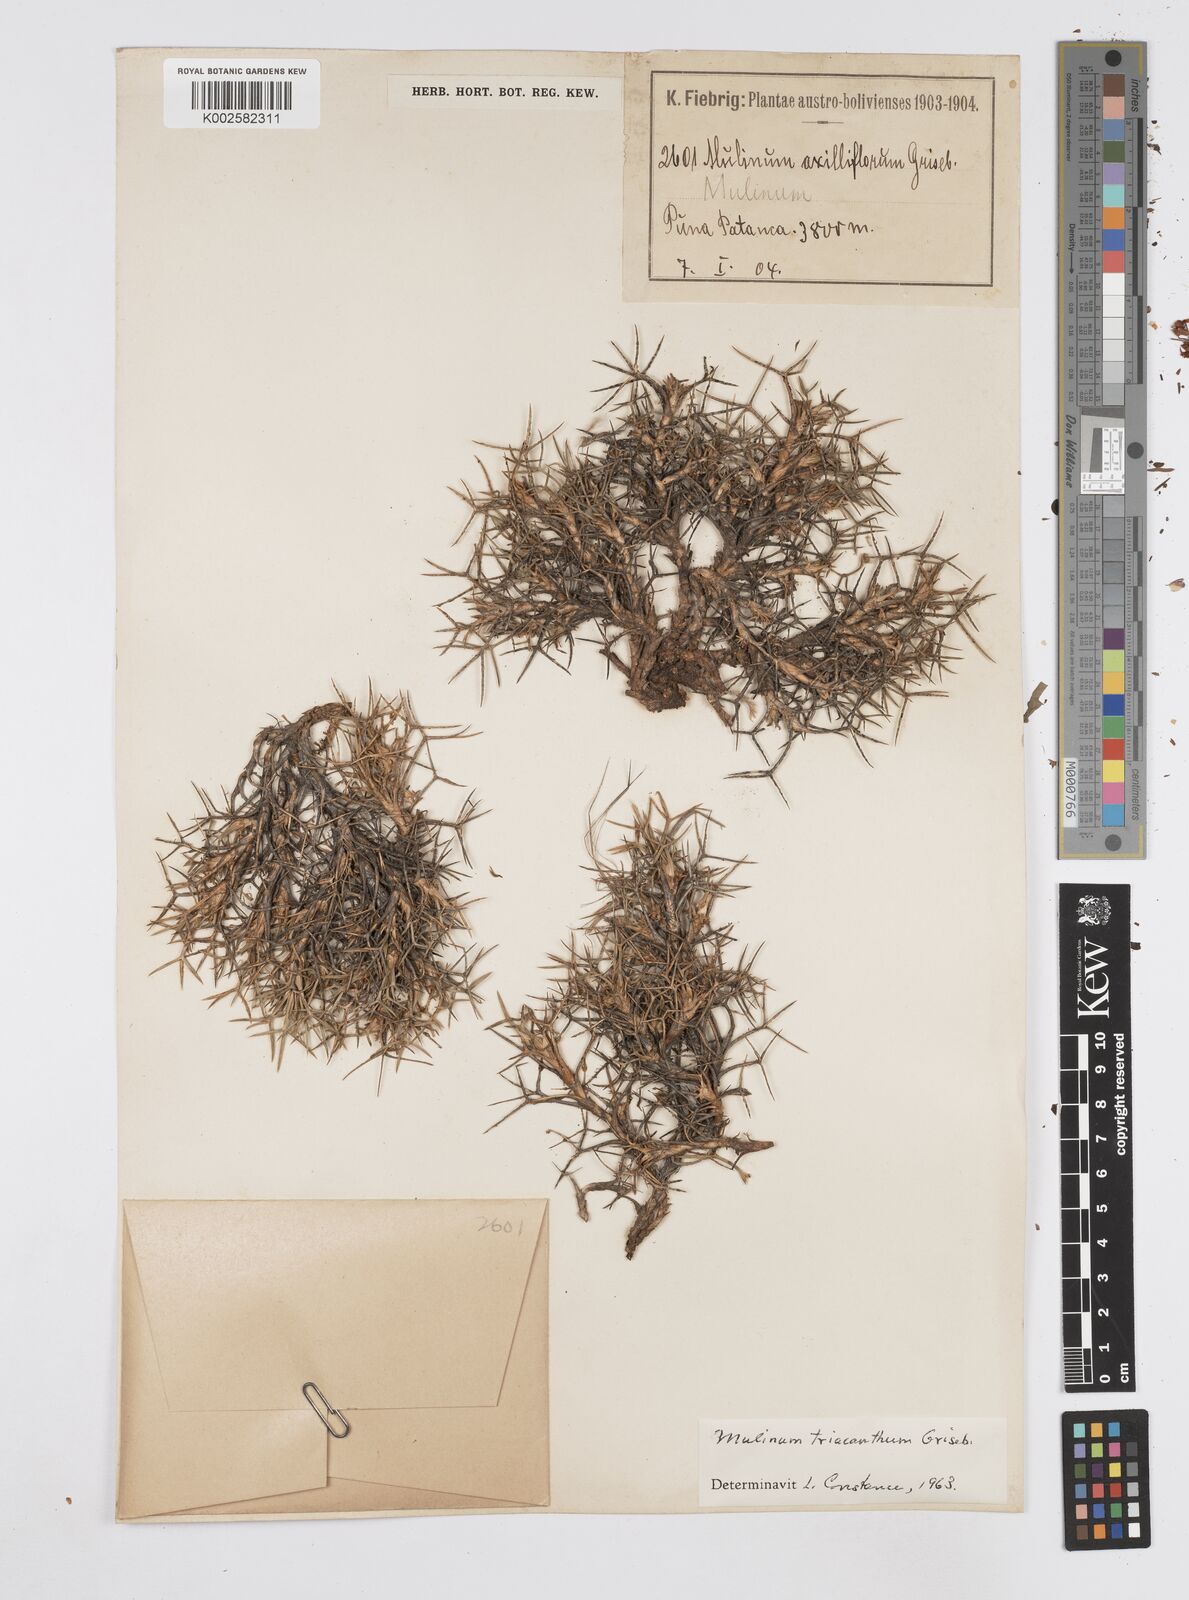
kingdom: Plantae
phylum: Tracheophyta
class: Magnoliopsida
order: Apiales
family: Apiaceae
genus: Azorella
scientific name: Azorella triacantha
